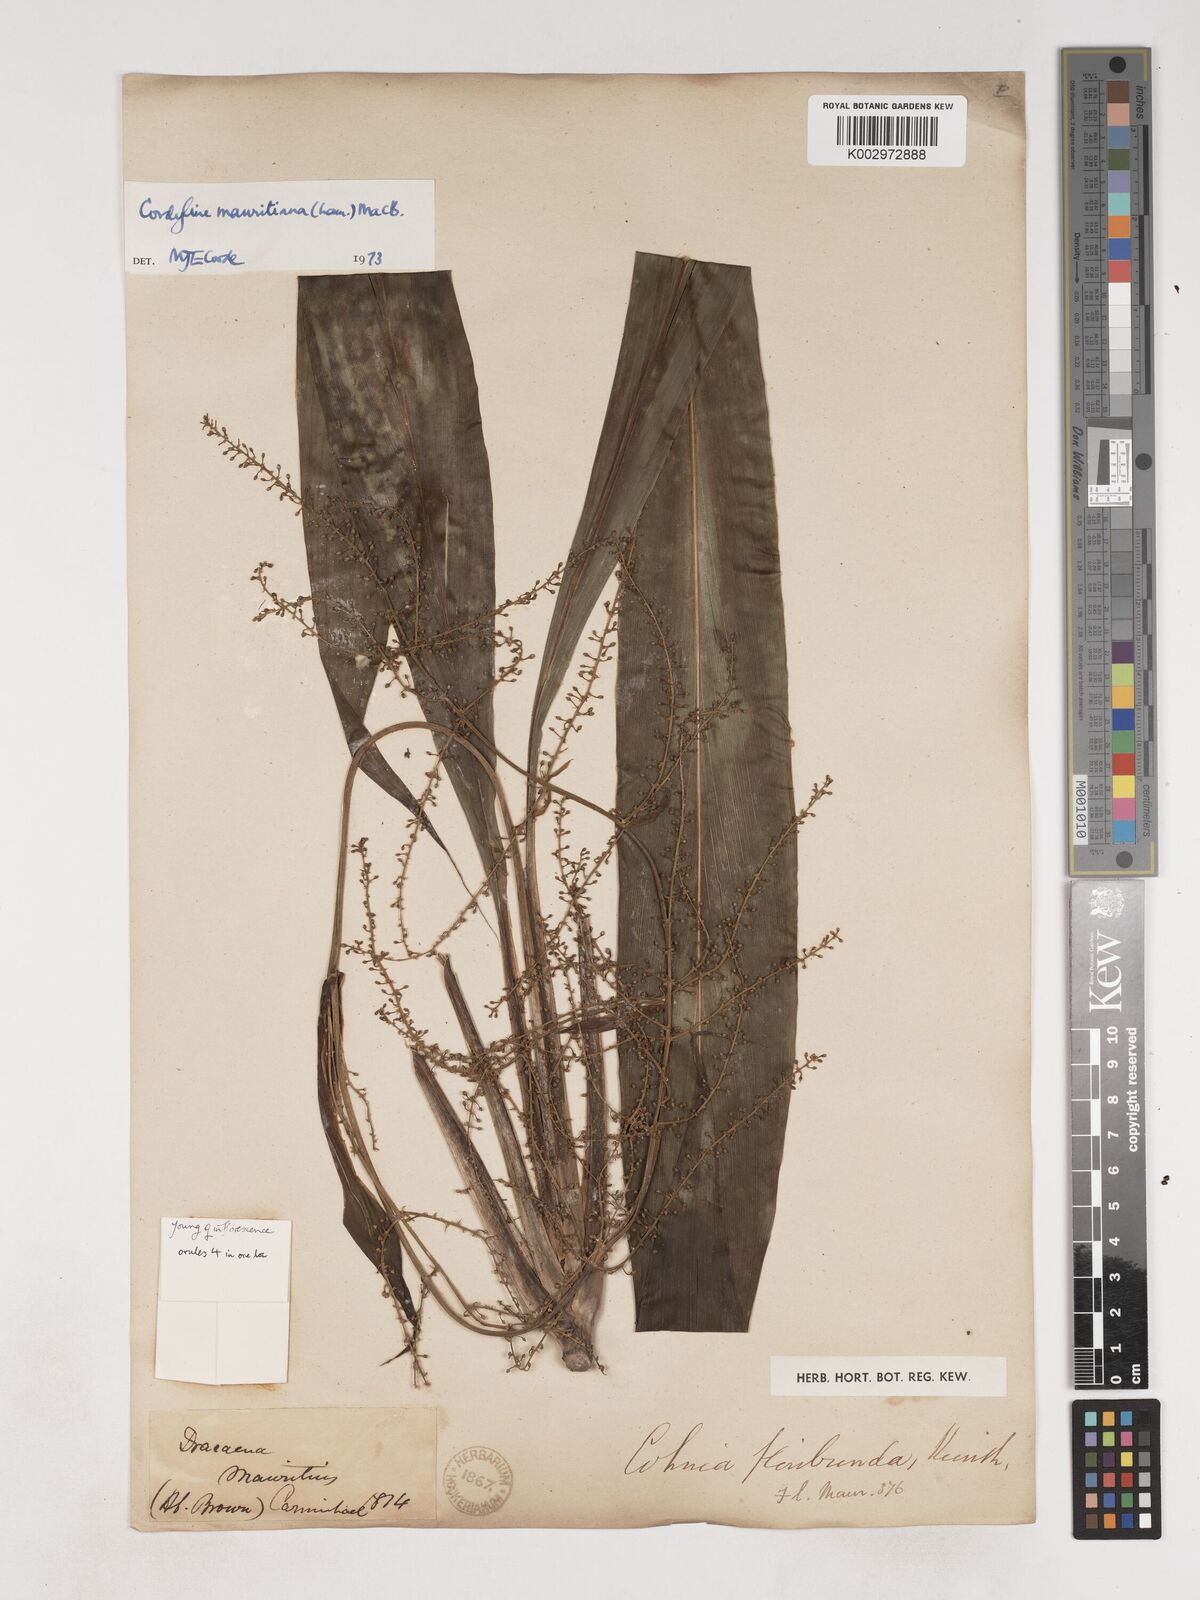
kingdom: Plantae
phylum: Tracheophyta
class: Liliopsida
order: Asparagales
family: Asparagaceae
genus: Cordyline
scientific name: Cordyline mauritiana
